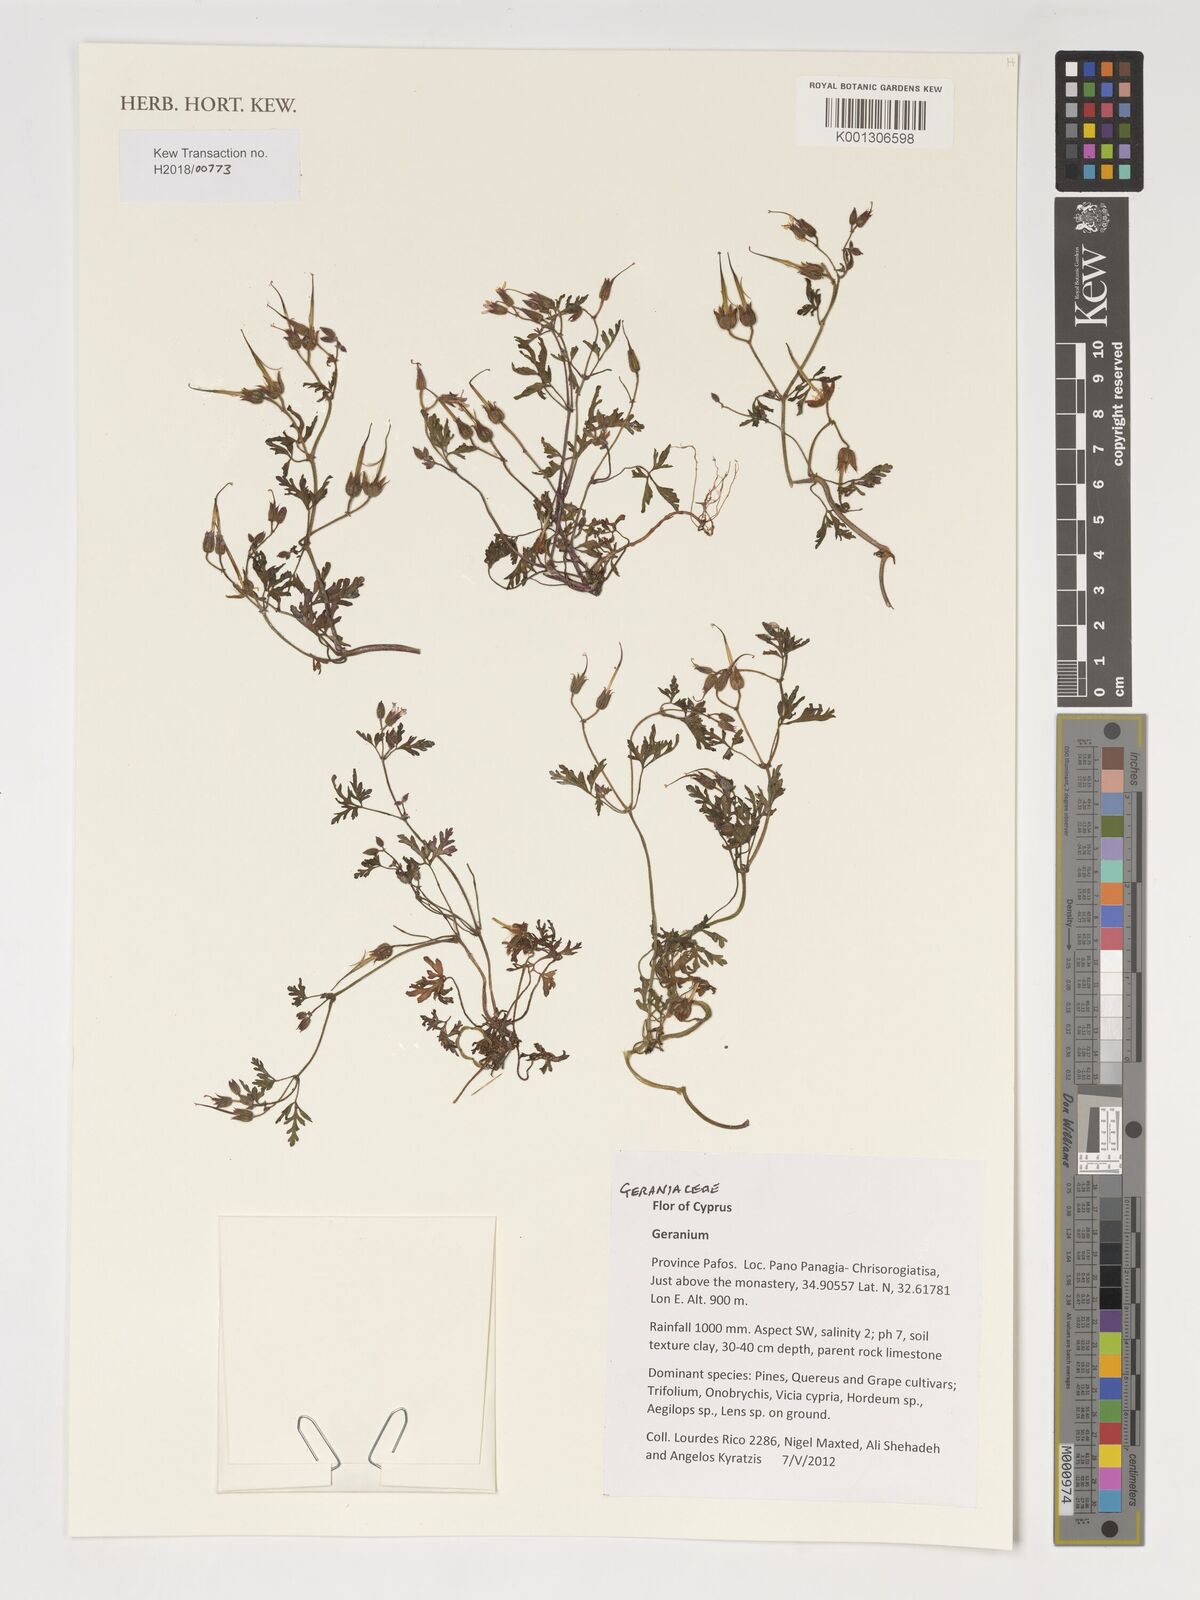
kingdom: Plantae
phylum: Tracheophyta
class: Magnoliopsida
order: Geraniales
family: Geraniaceae
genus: Geranium
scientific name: Geranium
